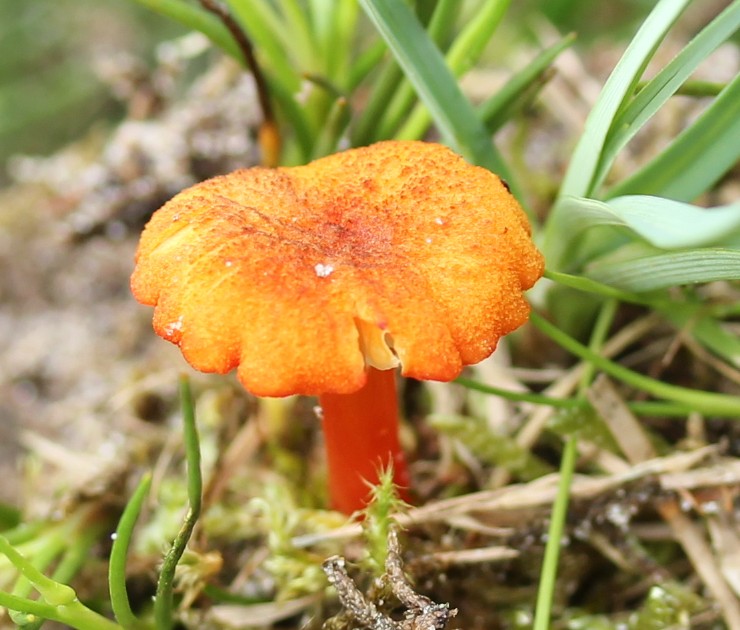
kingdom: Fungi
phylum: Basidiomycota
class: Agaricomycetes
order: Agaricales
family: Hygrophoraceae
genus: Hygrocybe
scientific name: Hygrocybe cantharellus
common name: kantarel-vokshat
